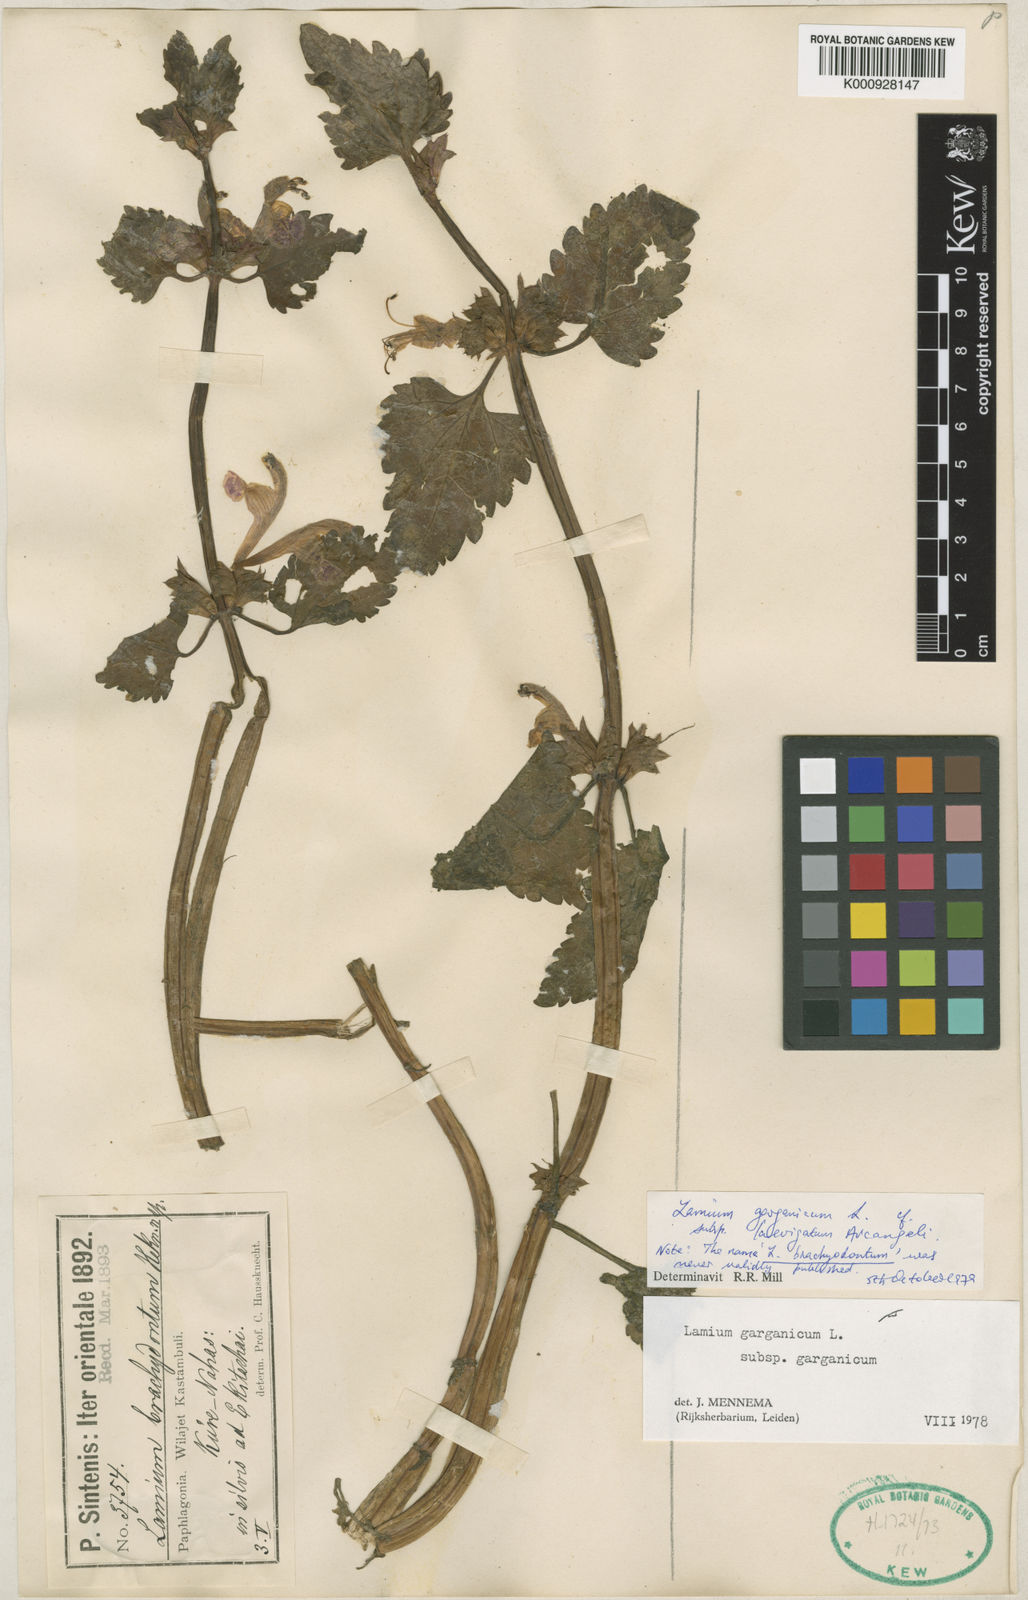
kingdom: Plantae
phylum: Tracheophyta
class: Magnoliopsida
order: Lamiales
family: Lamiaceae
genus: Lamium
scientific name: Lamium garganicum
